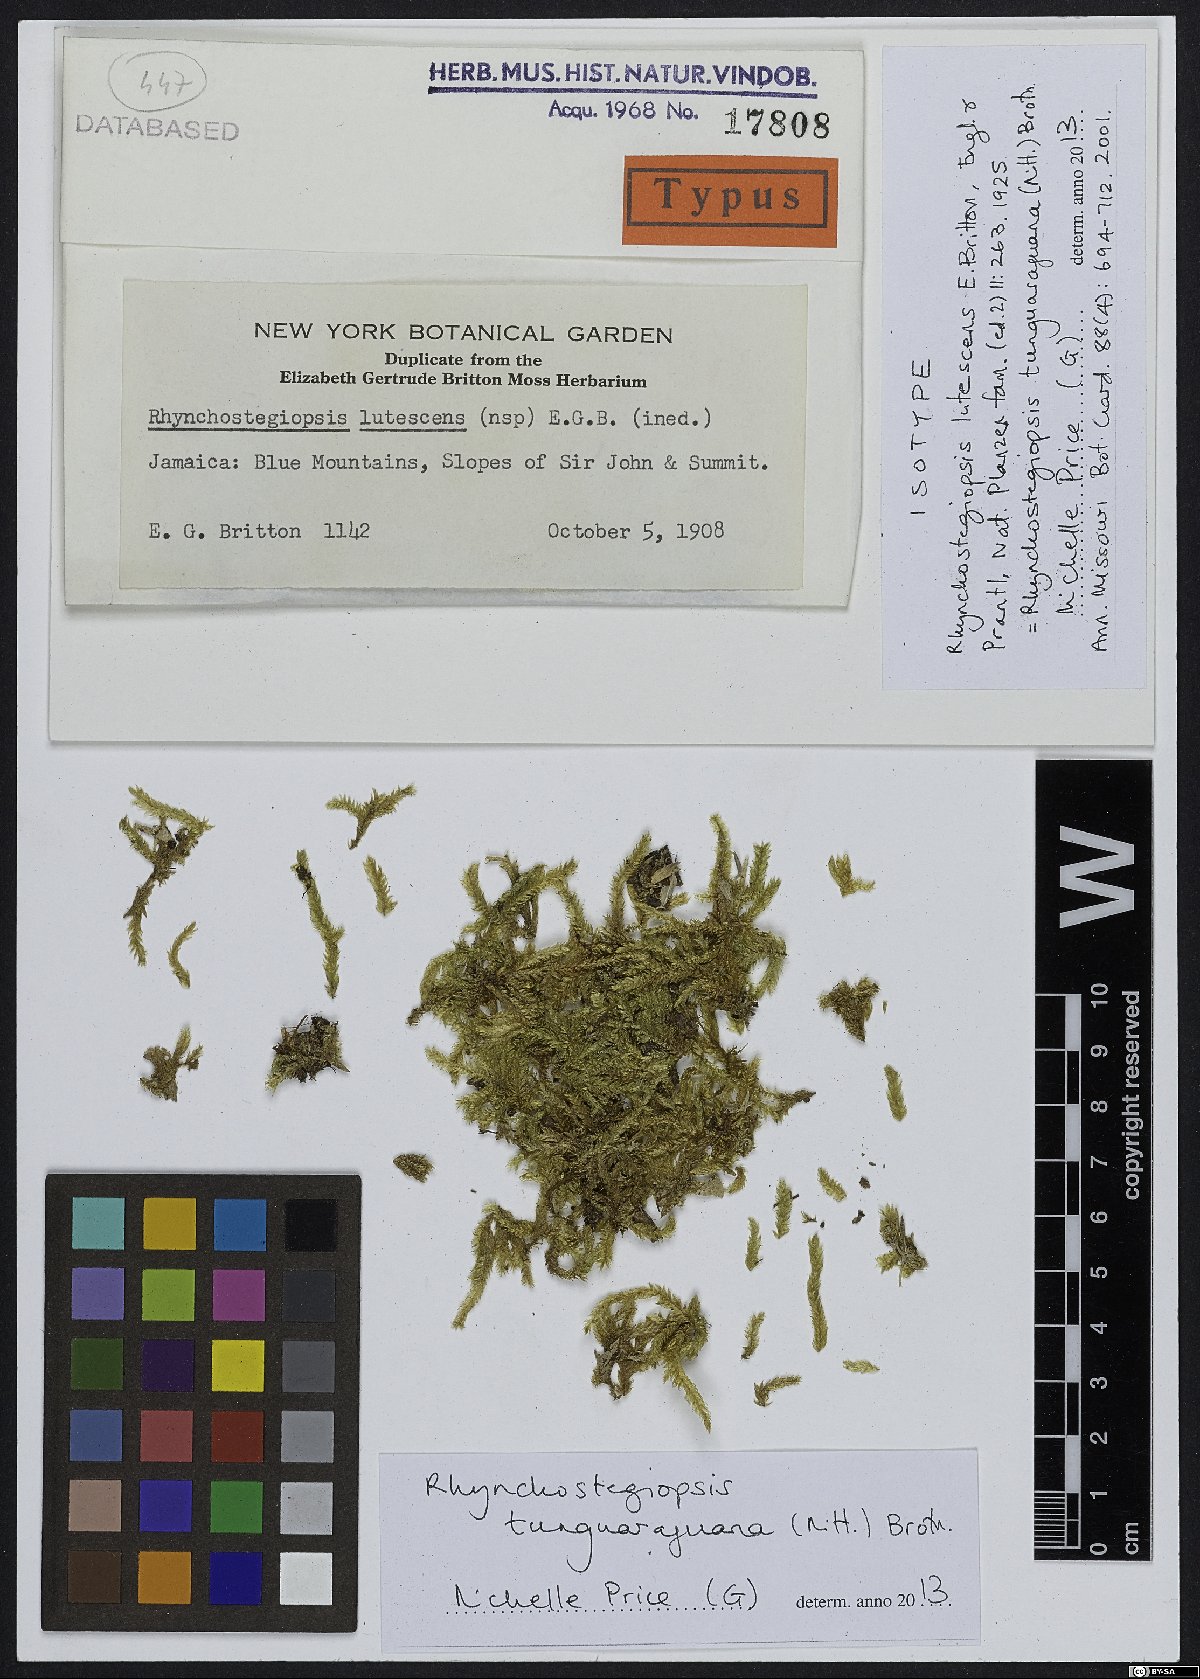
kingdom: Plantae
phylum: Bryophyta
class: Bryopsida
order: Hookeriales
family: Leucomiaceae
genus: Rhynchostegiopsis
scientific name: Rhynchostegiopsis tunguraguana
